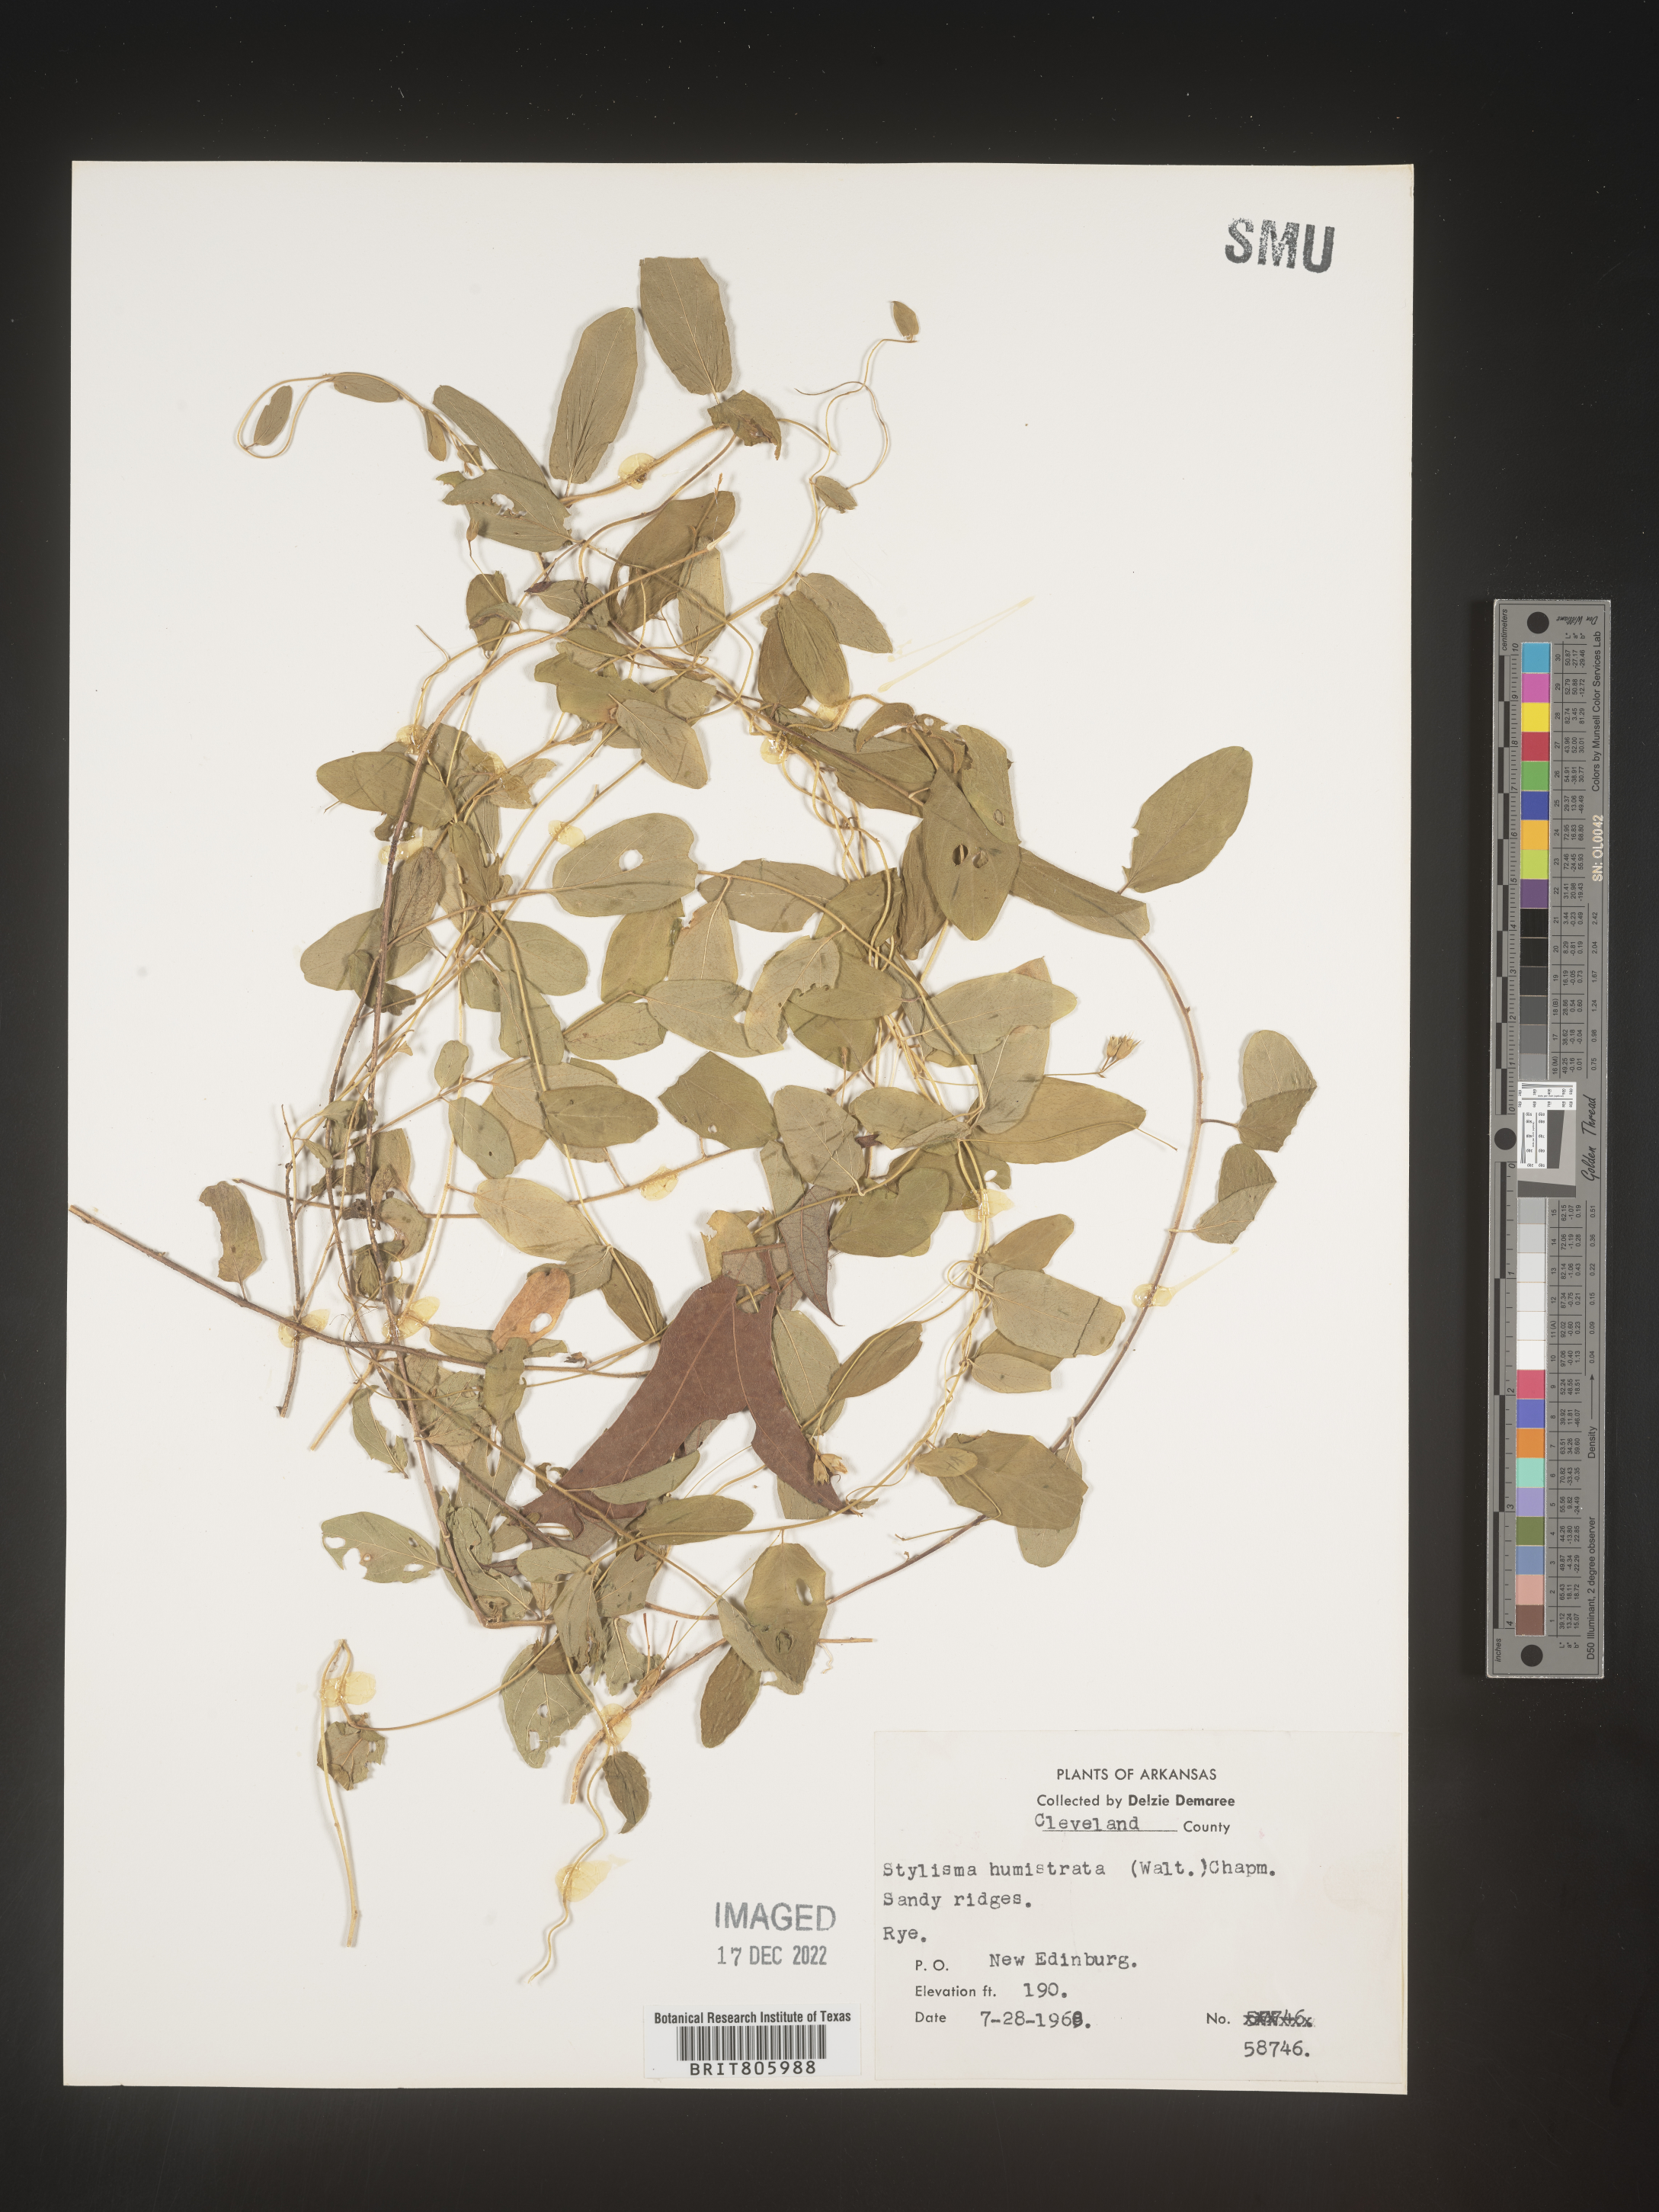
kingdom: Plantae
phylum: Tracheophyta
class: Magnoliopsida
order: Solanales
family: Convolvulaceae
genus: Stylisma
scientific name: Stylisma humistrata
